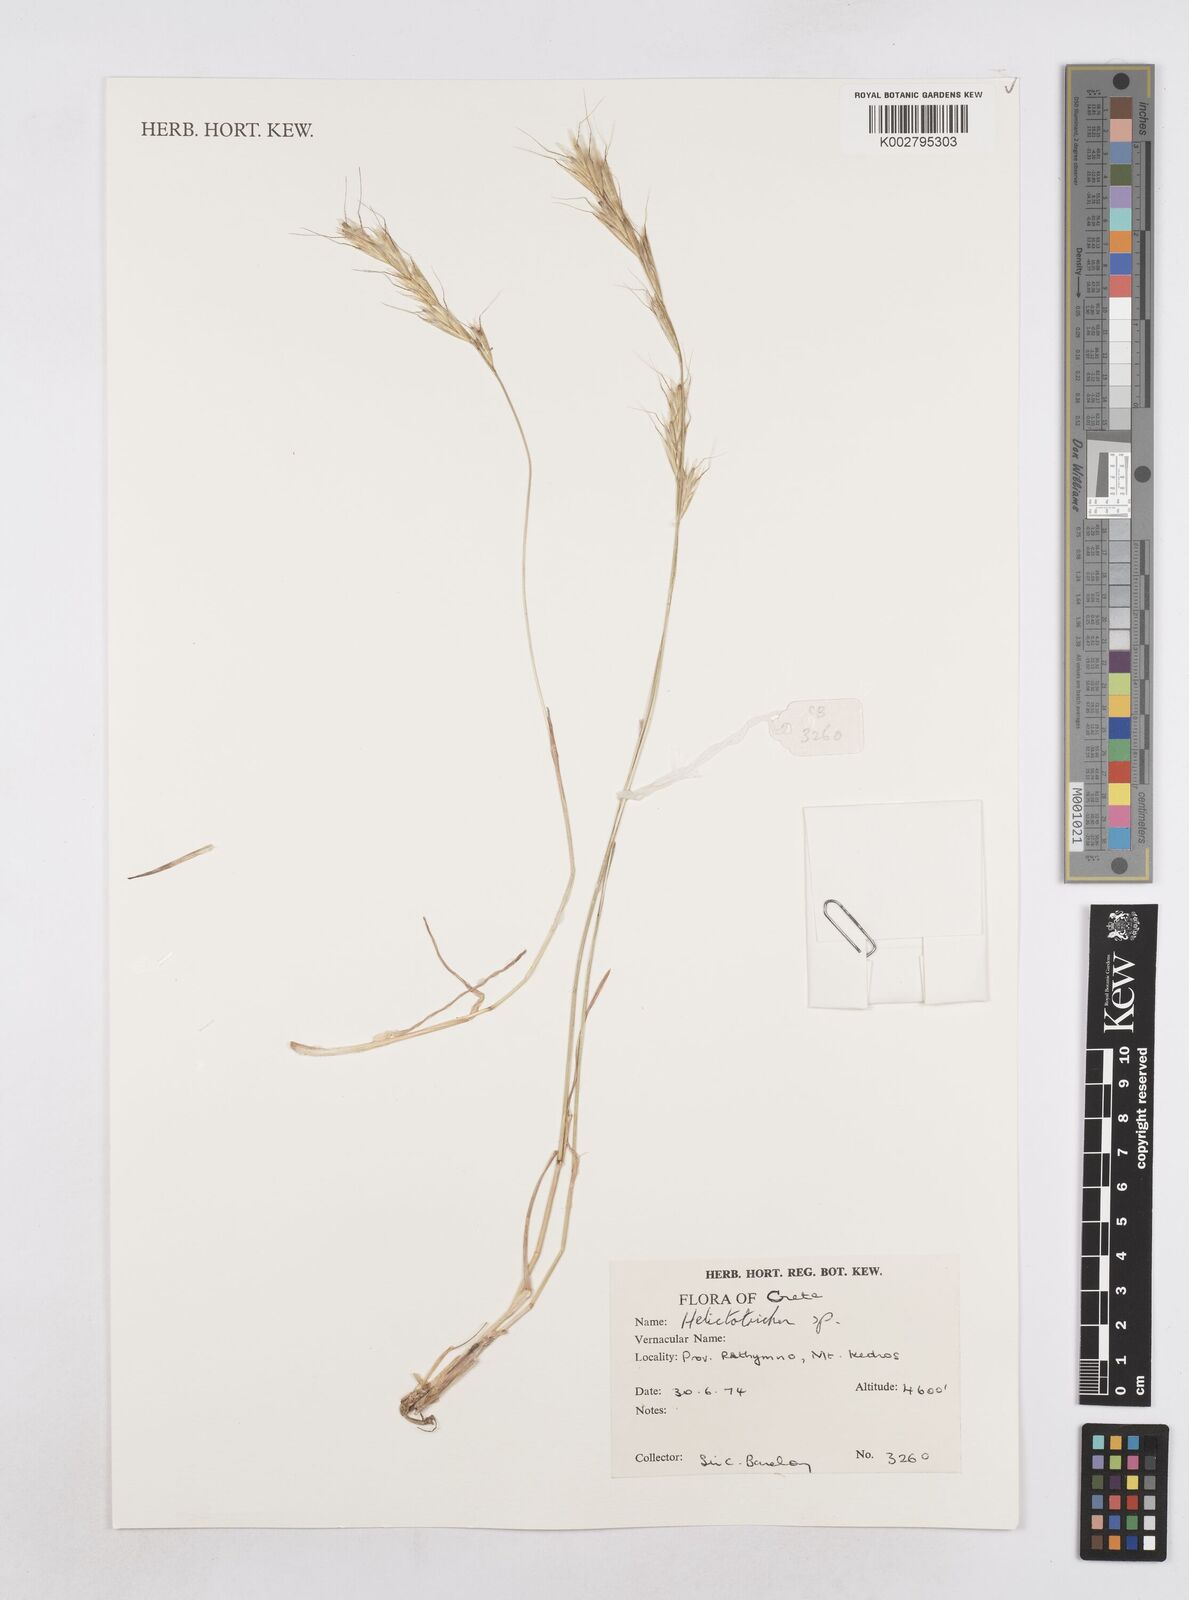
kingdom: Plantae
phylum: Tracheophyta
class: Liliopsida
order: Poales
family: Poaceae
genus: Helictotrichon
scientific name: Helictotrichon
